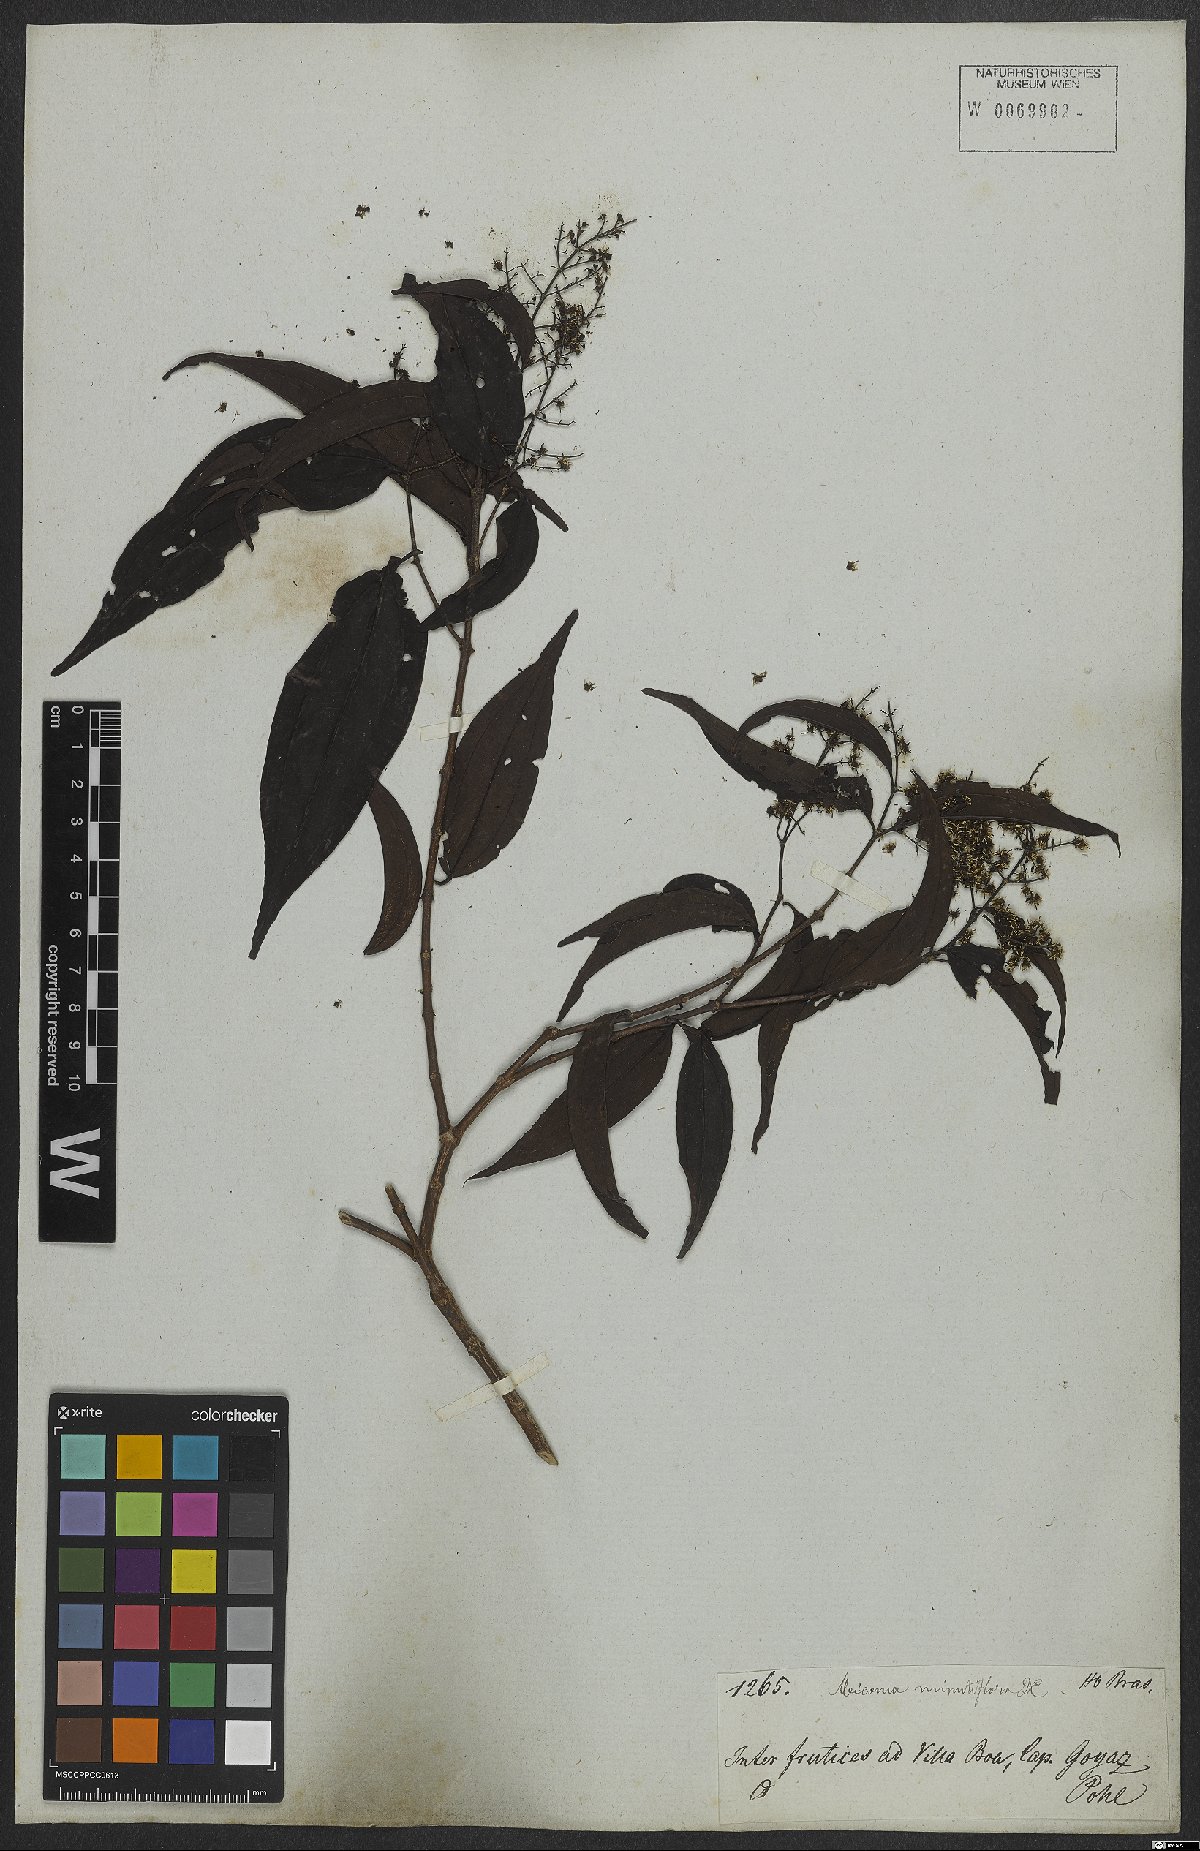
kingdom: Plantae
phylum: Tracheophyta
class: Magnoliopsida
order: Myrtales
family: Melastomataceae
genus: Miconia
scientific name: Miconia minutiflora
